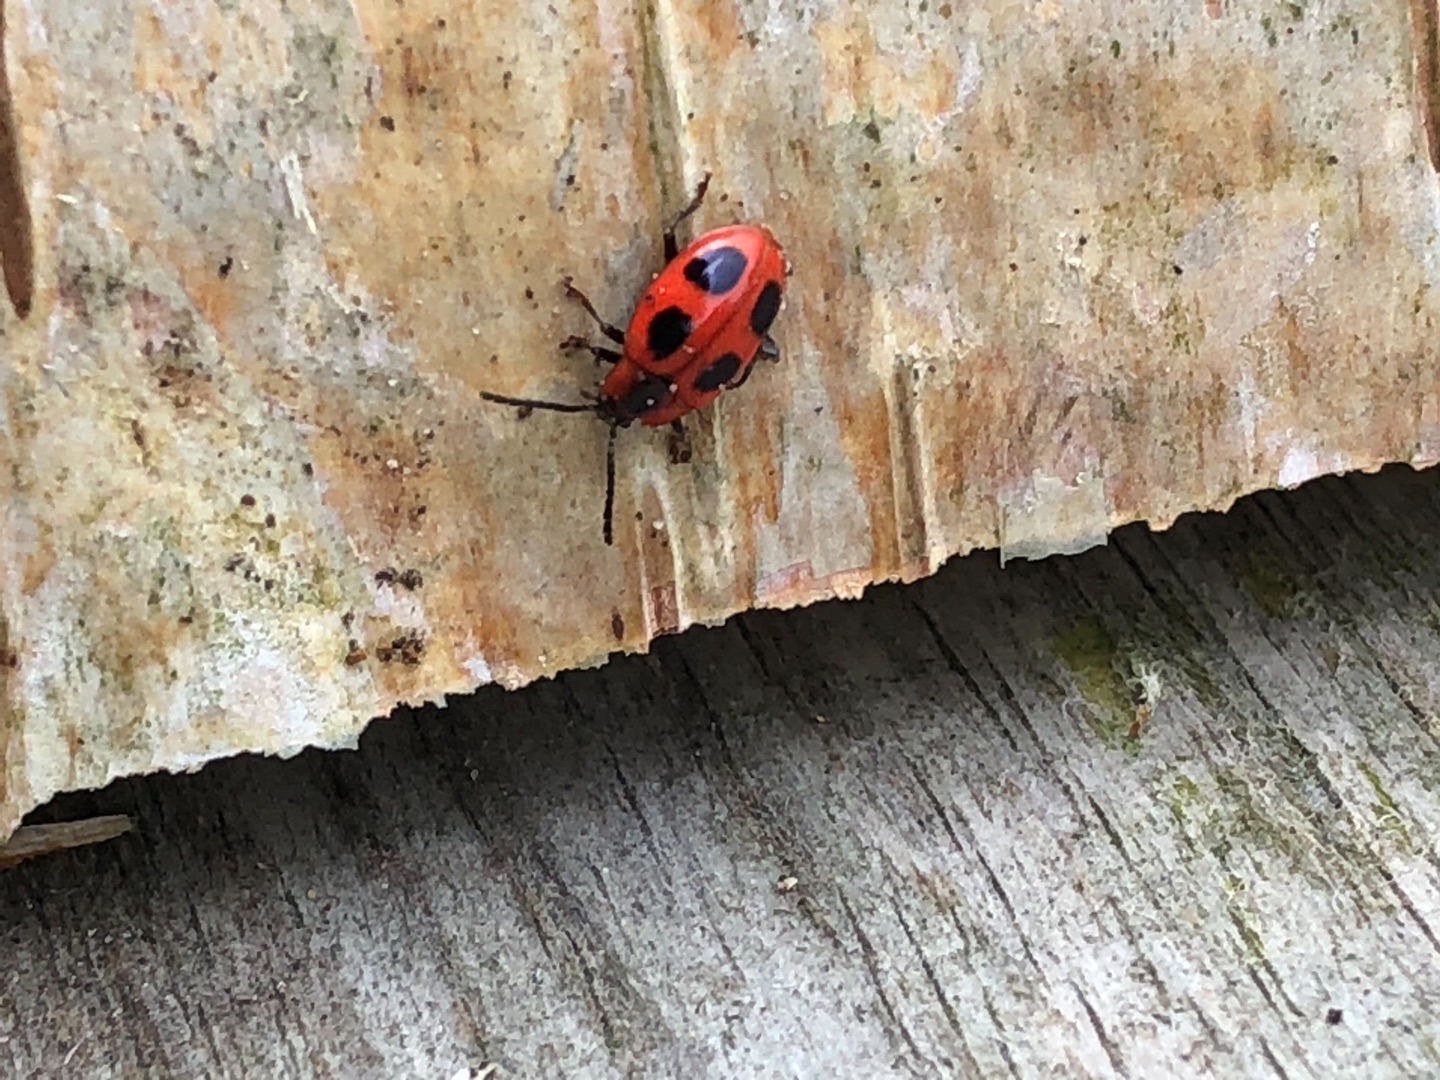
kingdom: Animalia
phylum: Arthropoda
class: Insecta
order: Coleoptera
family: Endomychidae
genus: Endomychus
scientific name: Endomychus coccineus
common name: Skarlagensvampehøne
